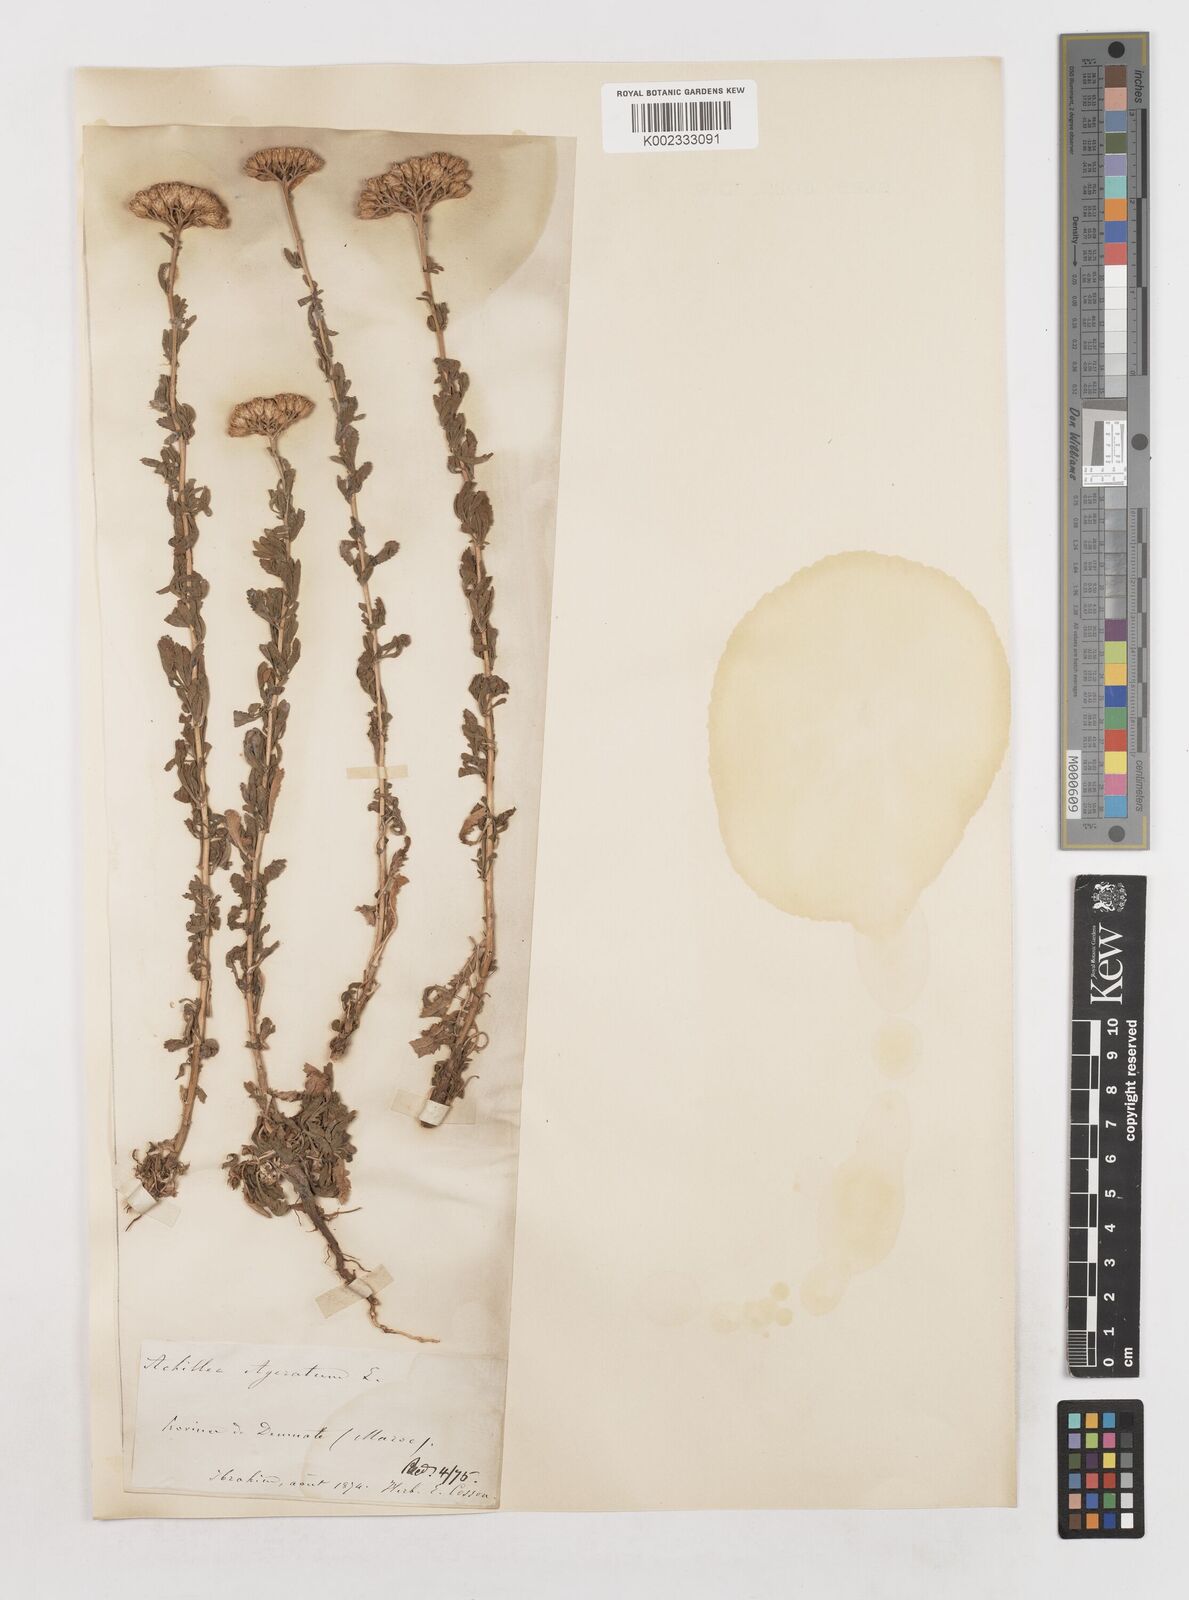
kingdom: Plantae
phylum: Tracheophyta
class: Magnoliopsida
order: Asterales
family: Asteraceae
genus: Achillea
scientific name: Achillea ageratum
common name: Sweet-nancy
